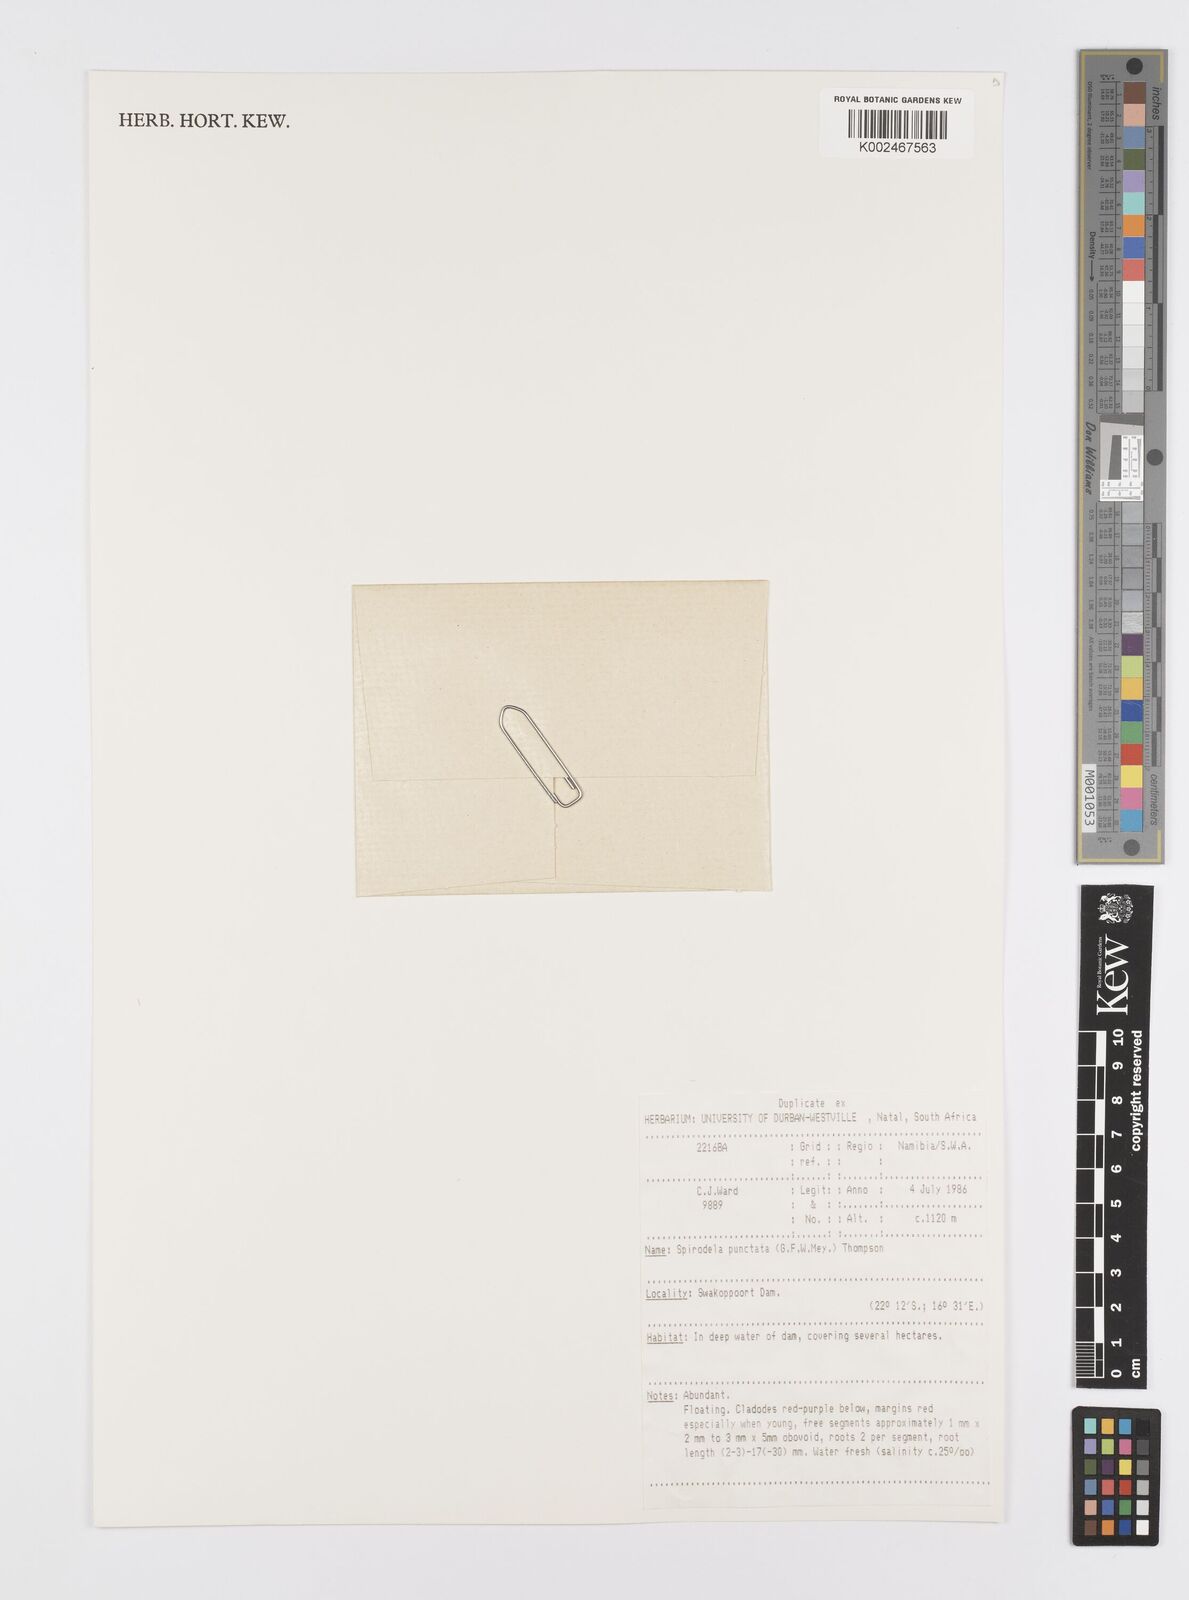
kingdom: Plantae
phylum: Tracheophyta
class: Liliopsida
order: Alismatales
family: Araceae
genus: Spirodela
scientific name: Spirodela punctata
